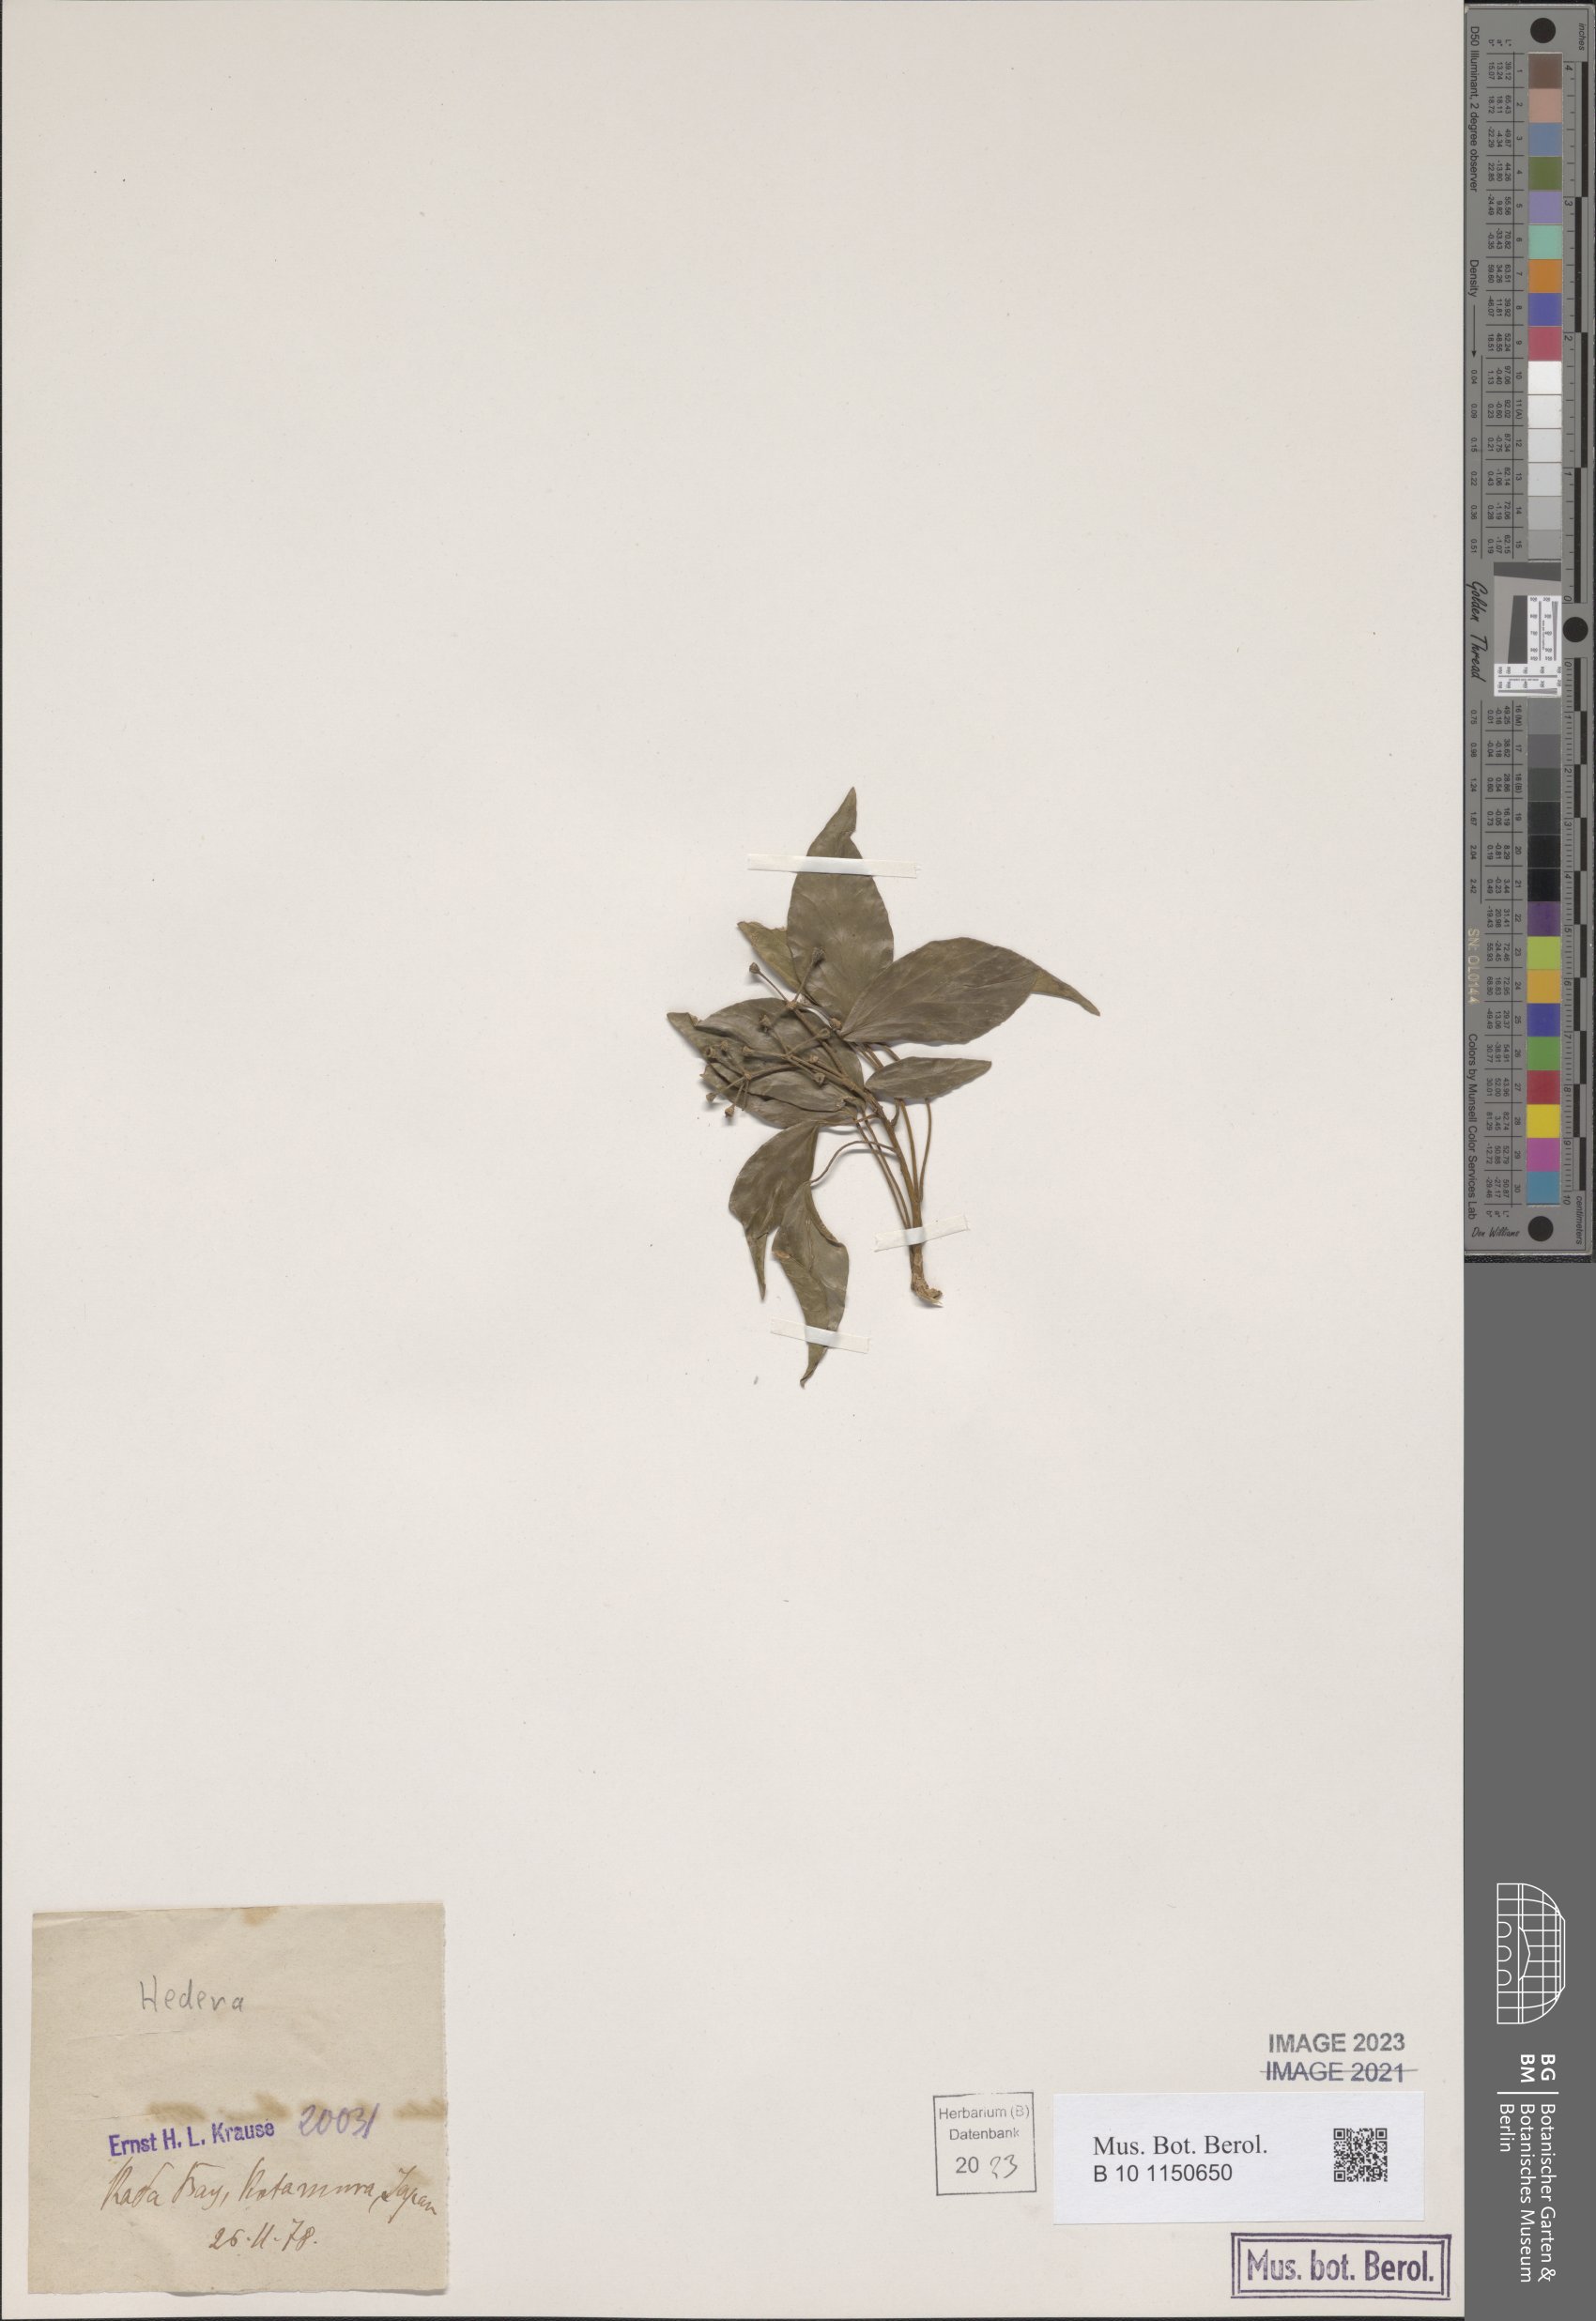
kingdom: Plantae
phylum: Tracheophyta
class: Magnoliopsida
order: Apiales
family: Araliaceae
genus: Hedera
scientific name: Hedera
